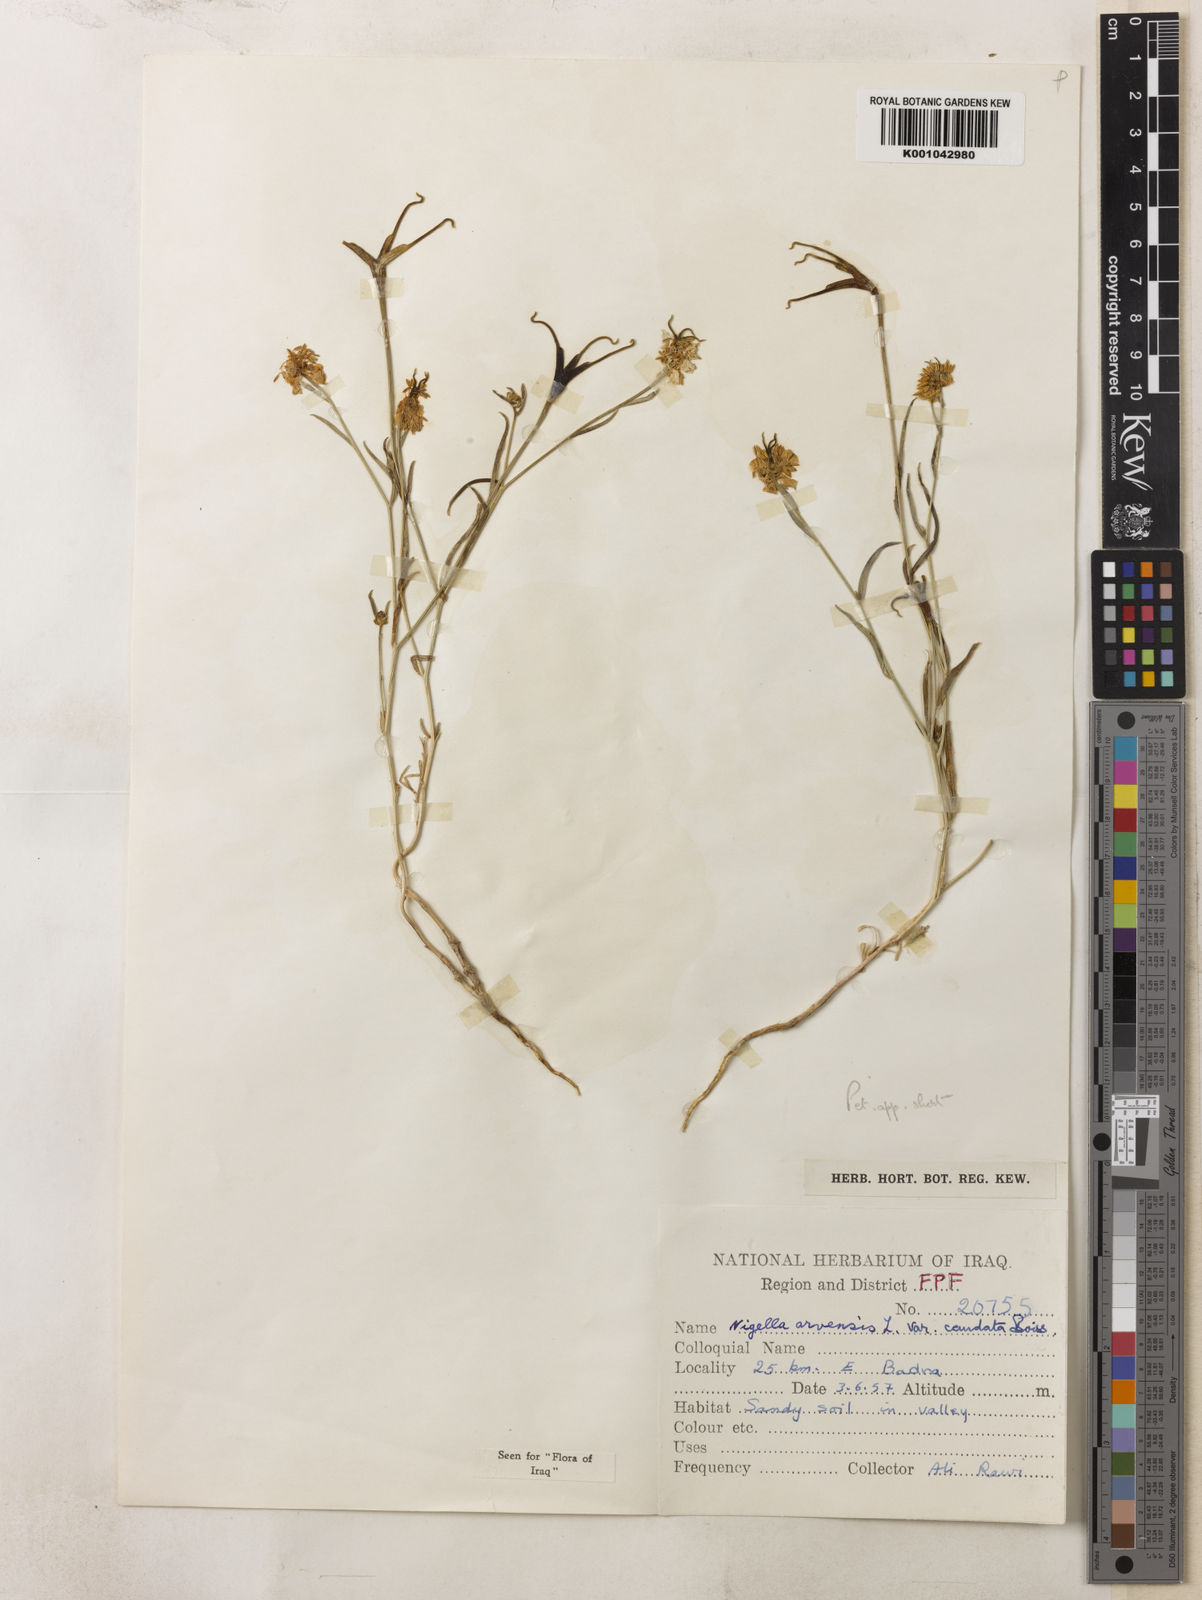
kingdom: Plantae
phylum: Tracheophyta
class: Magnoliopsida
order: Ranunculales
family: Ranunculaceae
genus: Nigella
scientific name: Nigella arvensis
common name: Wild fennel-flower
